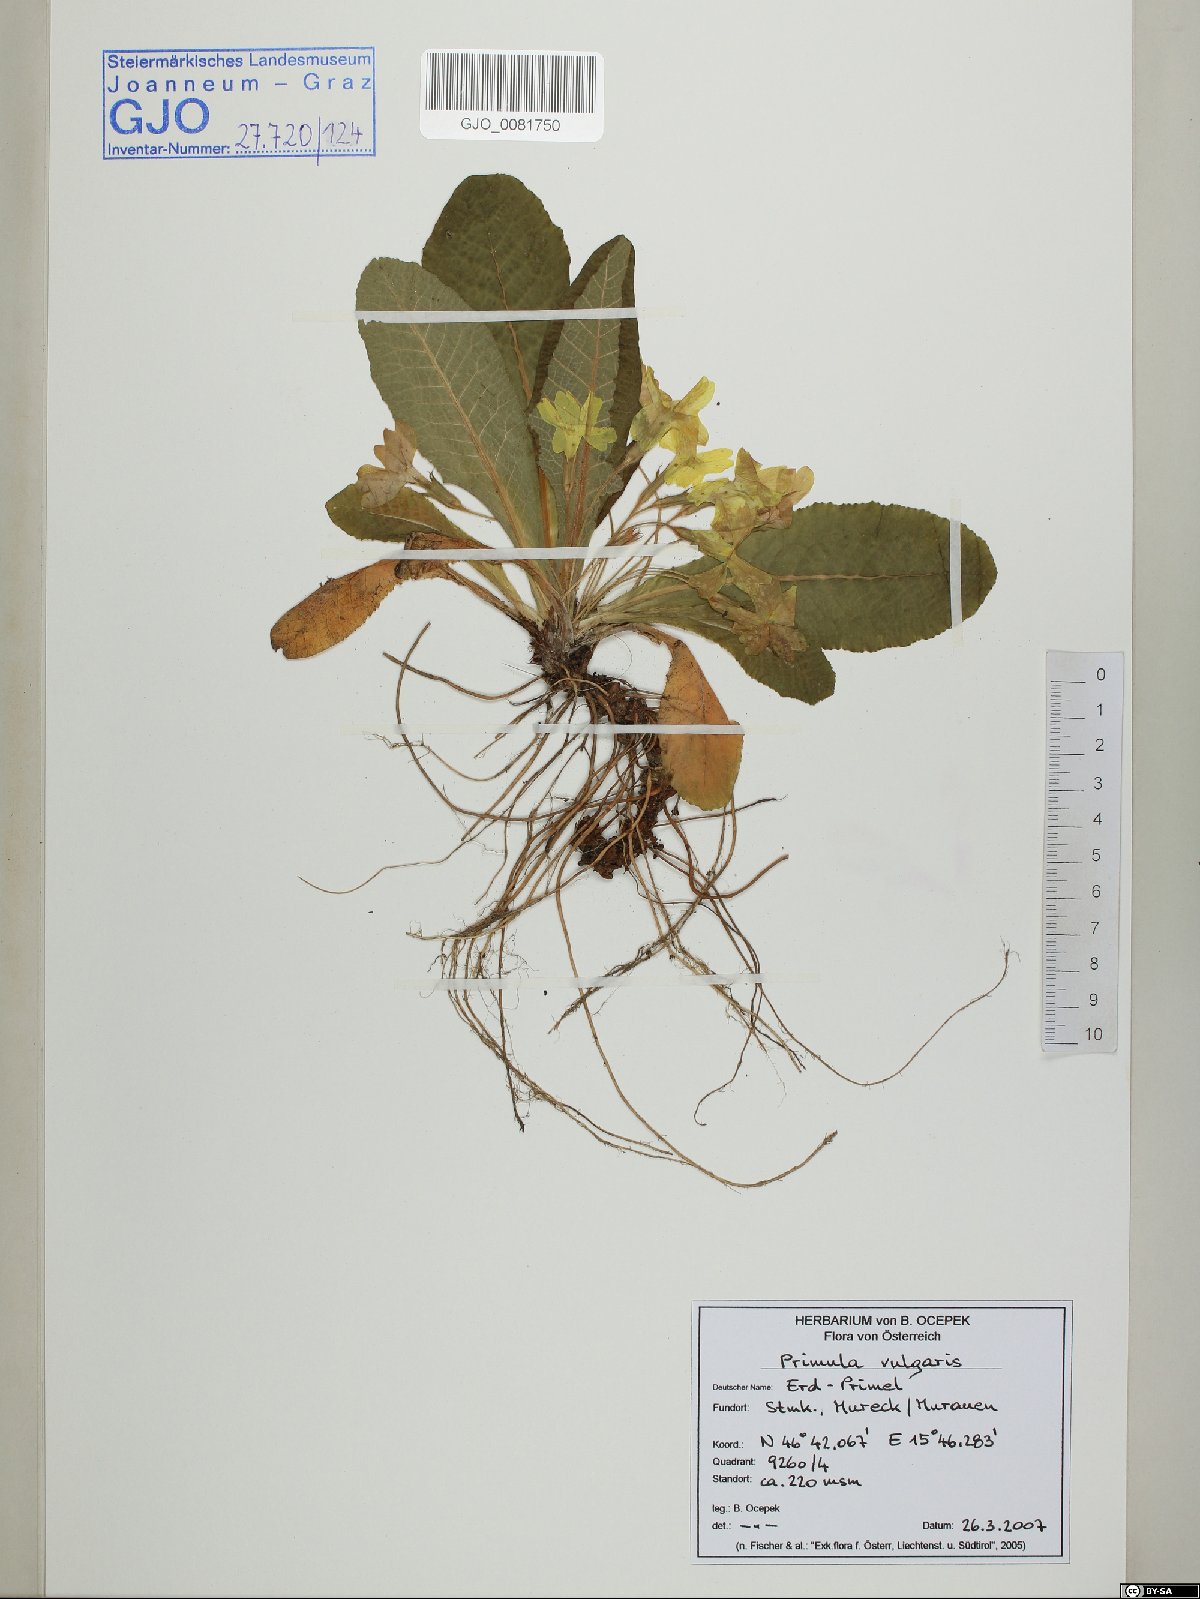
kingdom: Plantae
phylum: Tracheophyta
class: Magnoliopsida
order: Ericales
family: Primulaceae
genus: Primula
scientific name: Primula vulgaris
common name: Primrose
